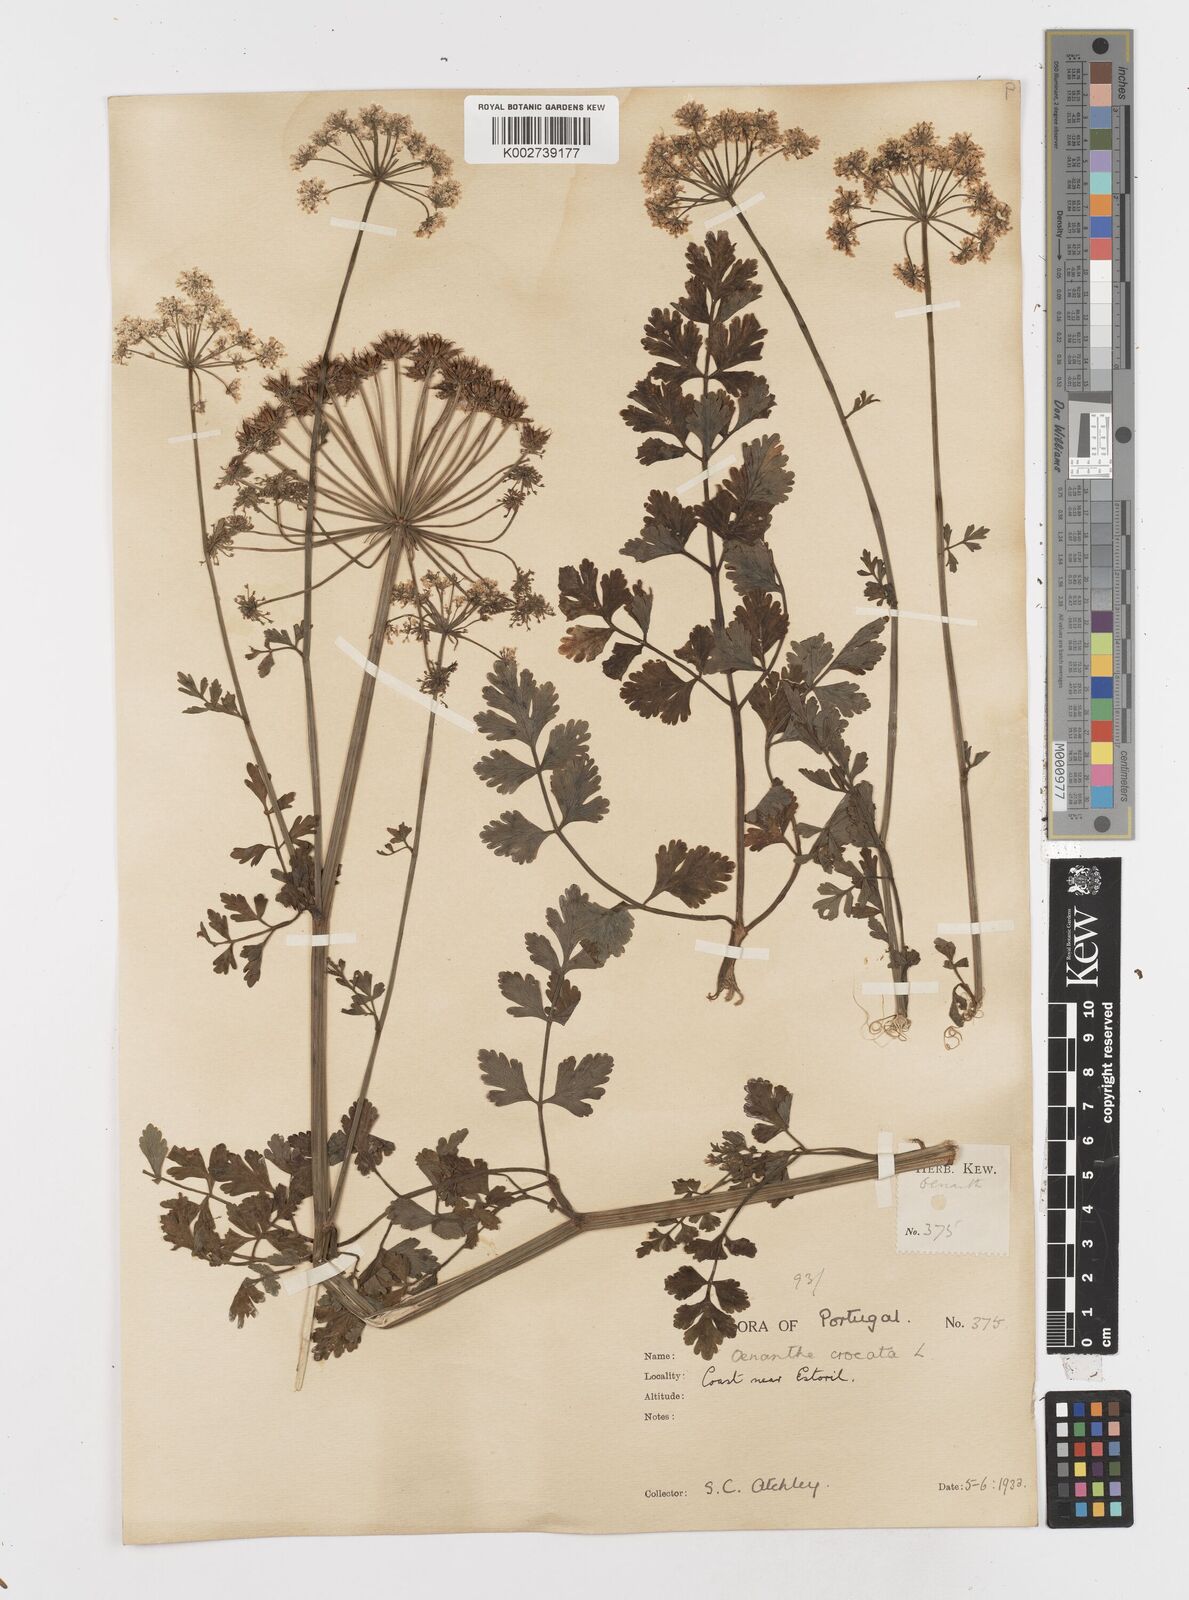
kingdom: Plantae
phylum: Tracheophyta
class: Magnoliopsida
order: Apiales
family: Apiaceae
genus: Oenanthe
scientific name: Oenanthe crocata
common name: Hemlock water-dropwort
